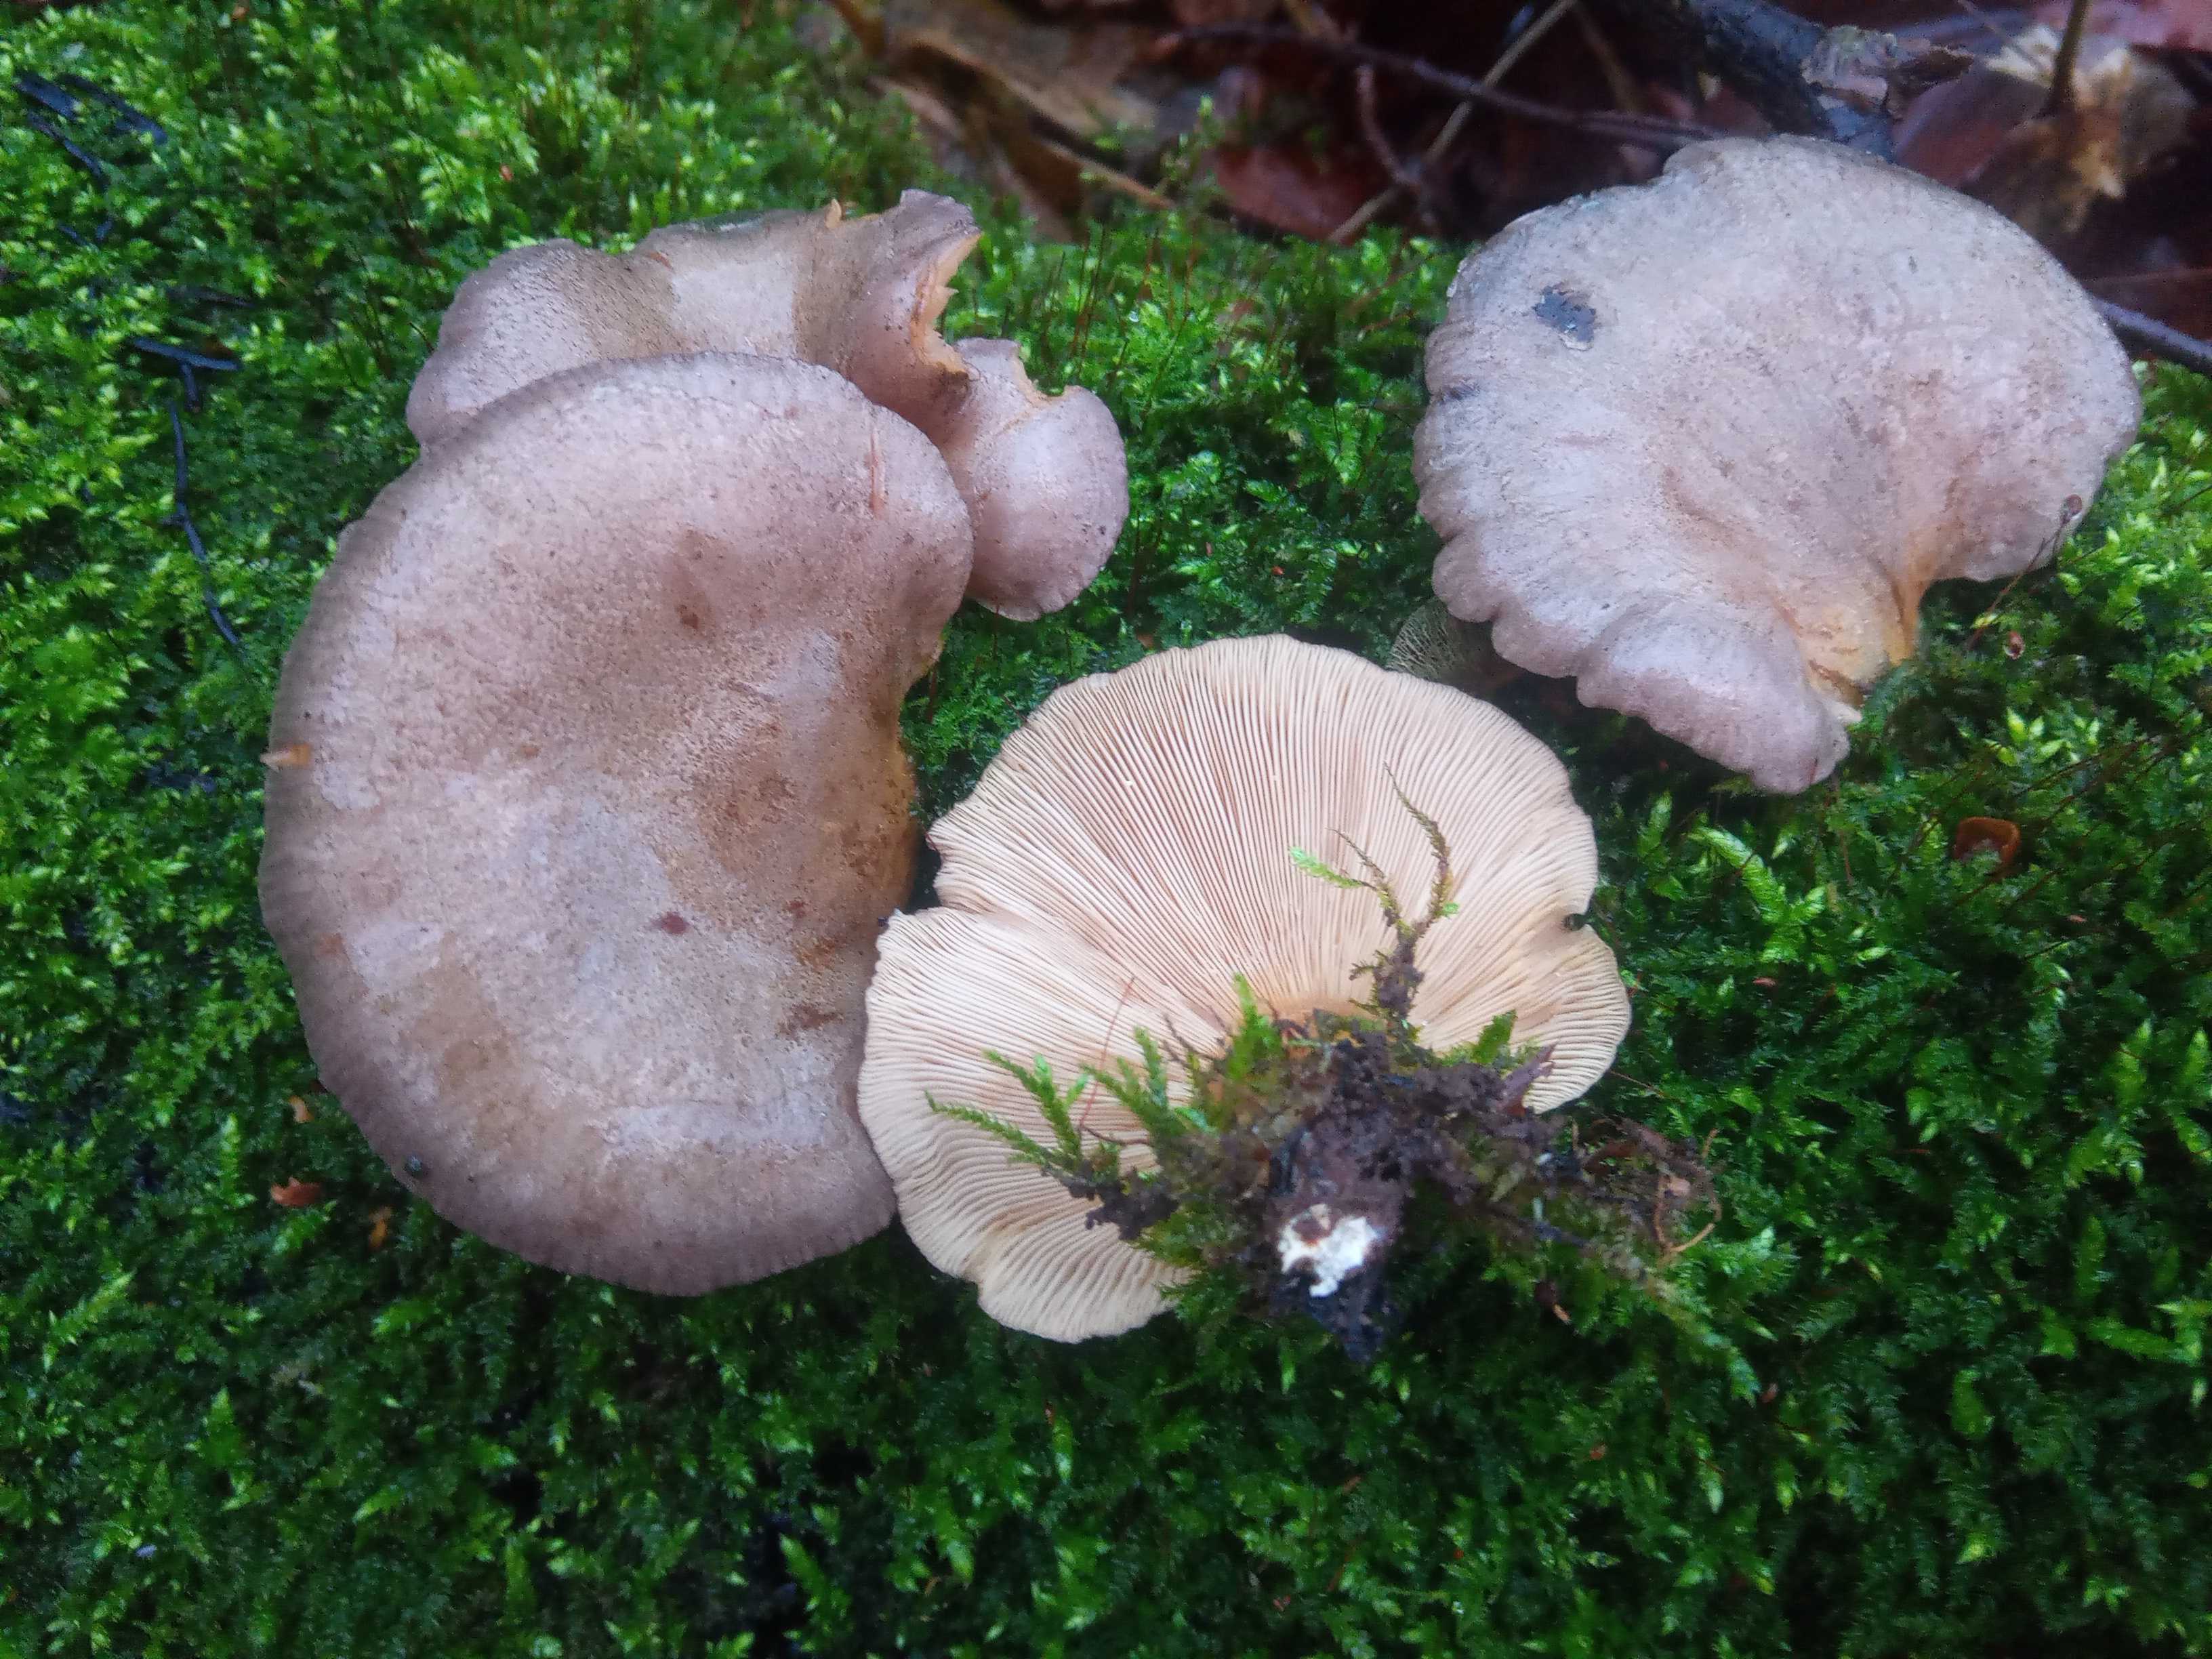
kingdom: Fungi
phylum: Basidiomycota
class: Agaricomycetes
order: Agaricales
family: Sarcomyxaceae
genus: Sarcomyxa
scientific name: Sarcomyxa serotina
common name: gummihat
